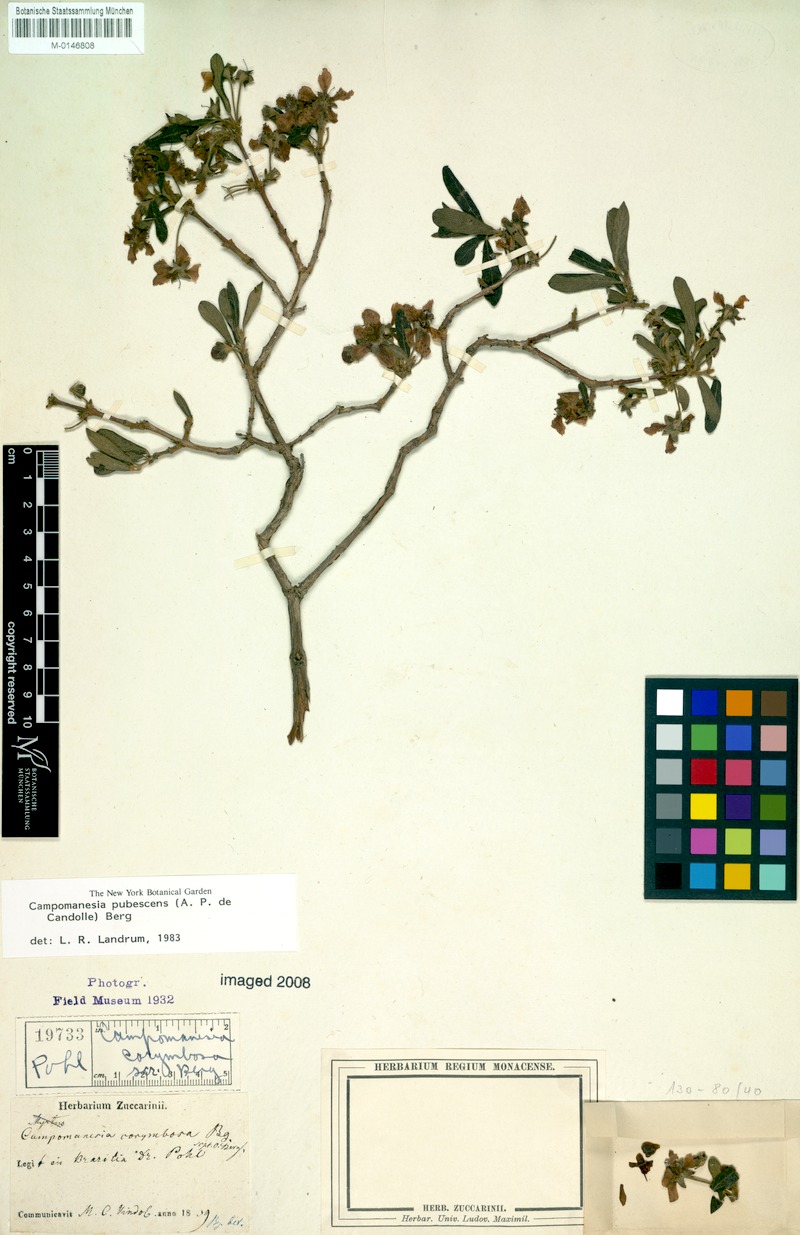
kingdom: Plantae
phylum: Tracheophyta
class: Magnoliopsida
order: Myrtales
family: Myrtaceae
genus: Campomanesia
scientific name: Campomanesia pubescens
